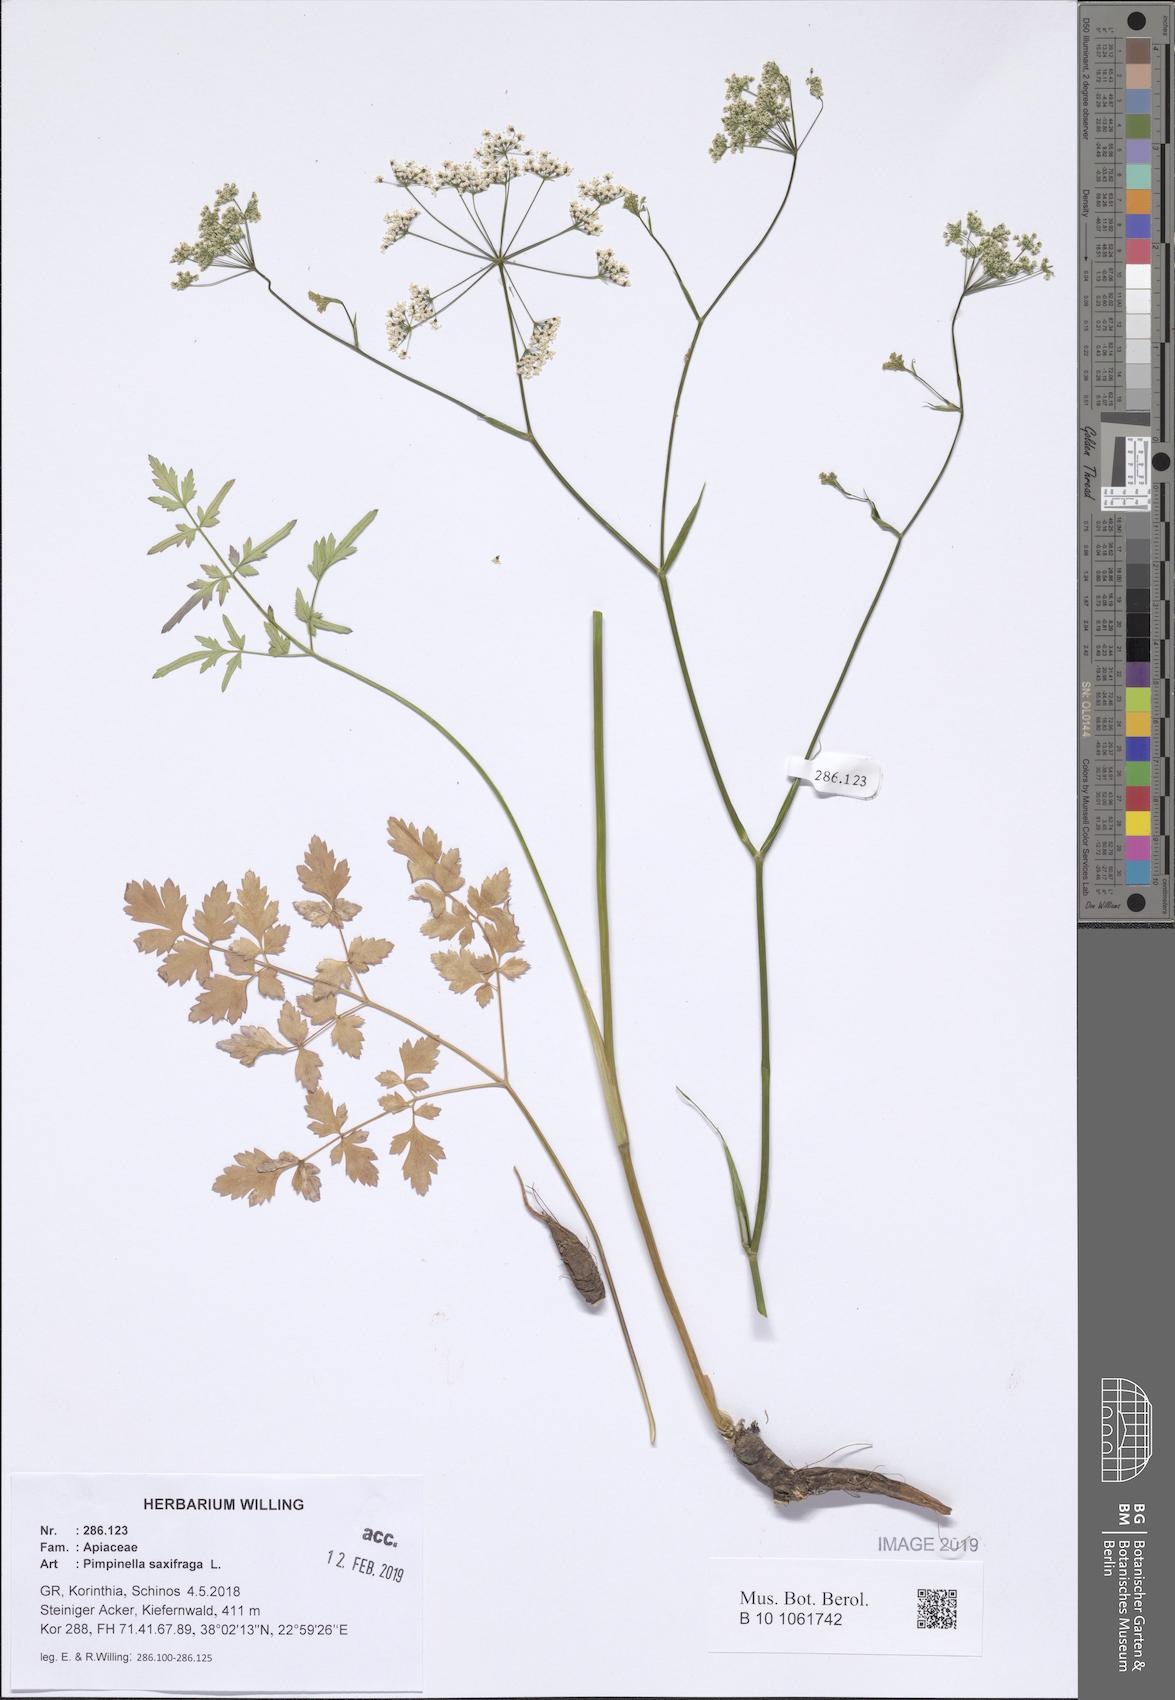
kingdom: Plantae
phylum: Tracheophyta
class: Magnoliopsida
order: Apiales
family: Apiaceae
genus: Pimpinella
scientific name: Pimpinella saxifraga
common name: Burnet-saxifrage
